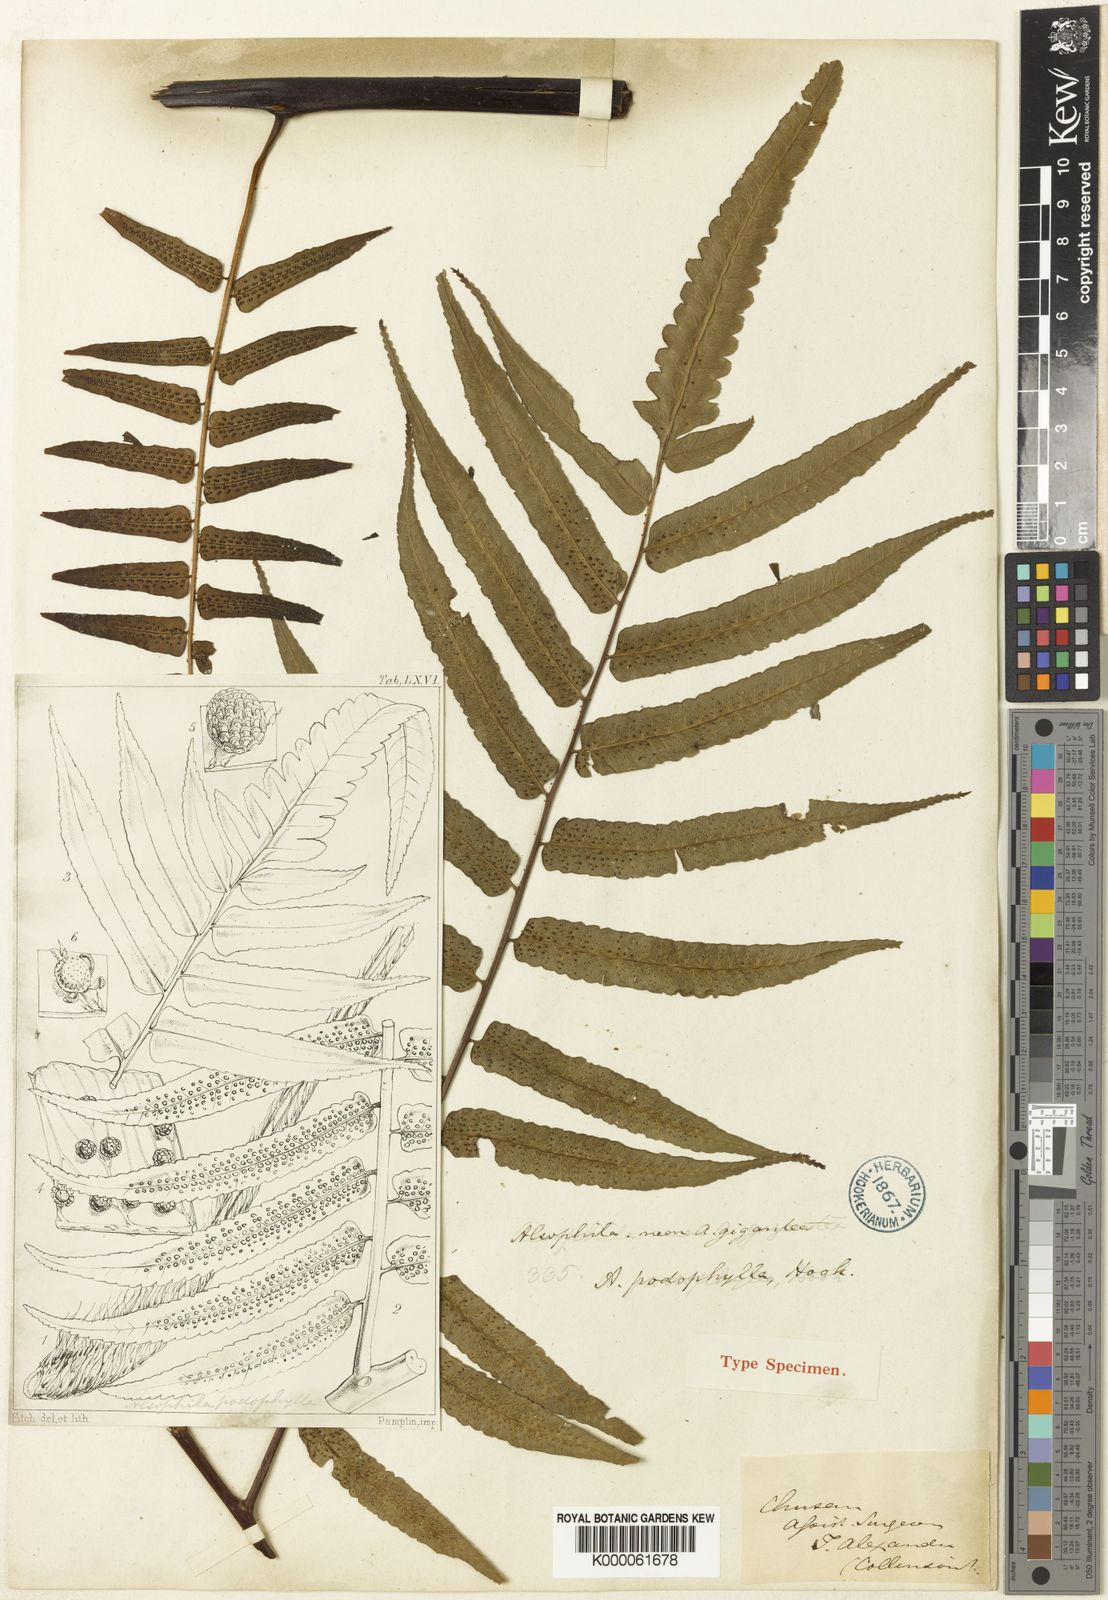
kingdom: Plantae
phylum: Tracheophyta
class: Polypodiopsida
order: Cyatheales
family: Cyatheaceae
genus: Gymnosphaera
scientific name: Gymnosphaera podophylla
